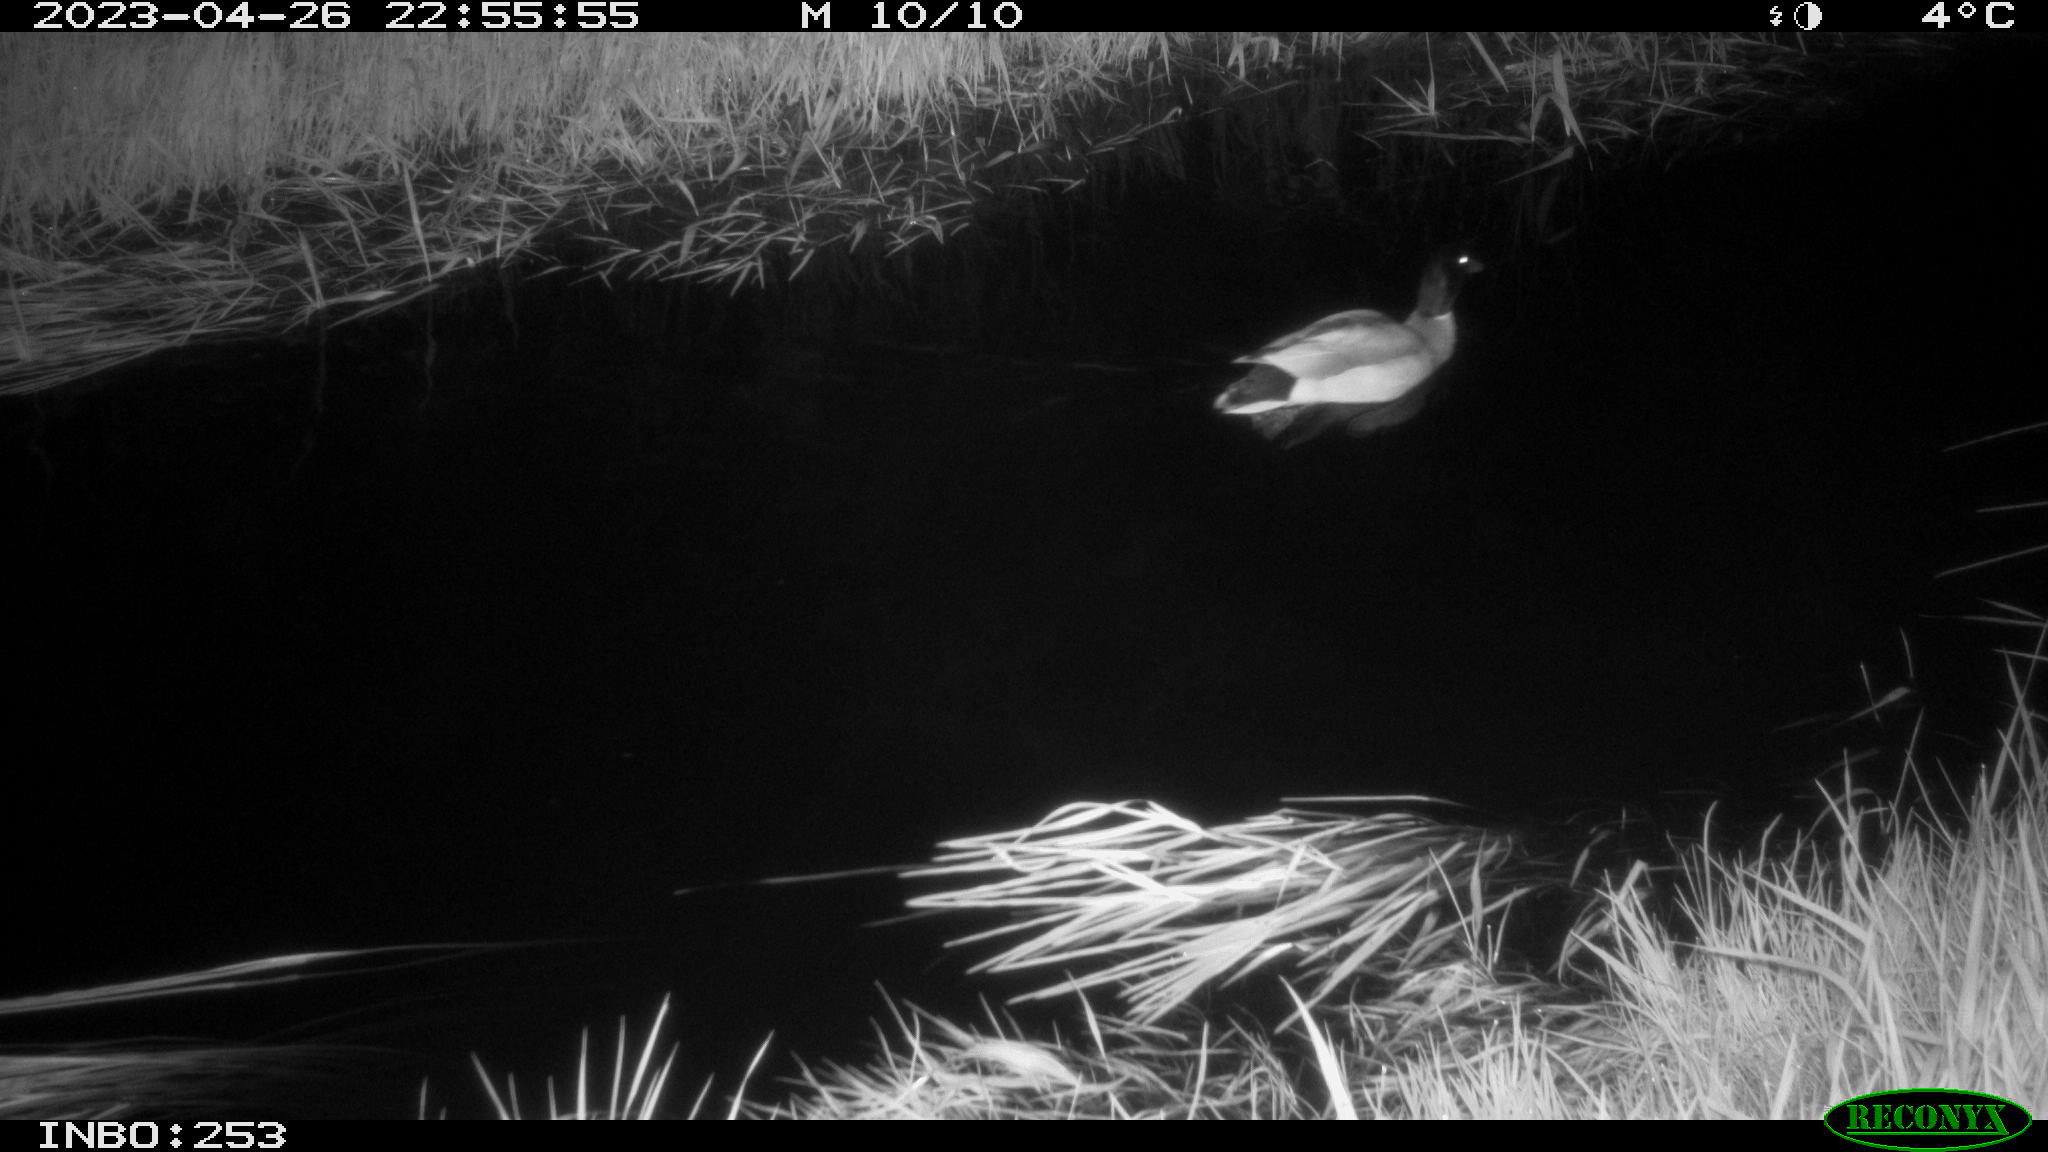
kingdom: Animalia
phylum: Chordata
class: Aves
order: Anseriformes
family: Anatidae
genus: Anas
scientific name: Anas
